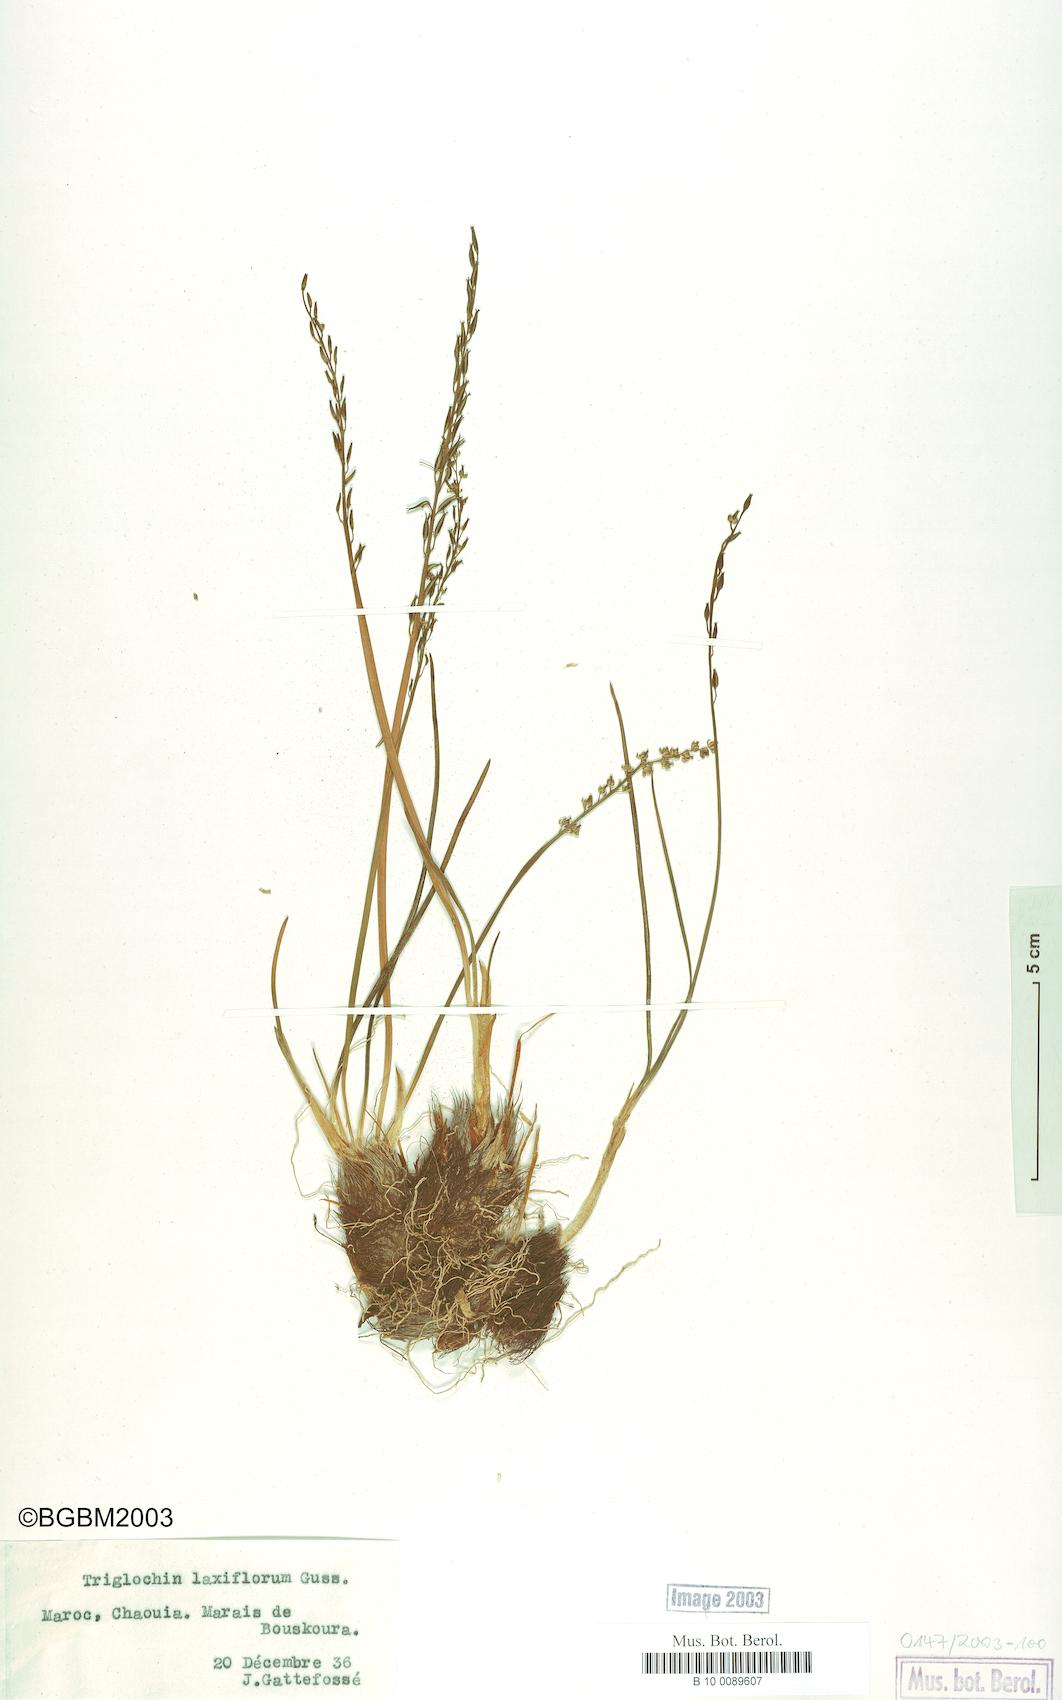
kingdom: Plantae
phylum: Tracheophyta
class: Liliopsida
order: Alismatales
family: Juncaginaceae
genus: Triglochin
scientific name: Triglochin laxiflora
